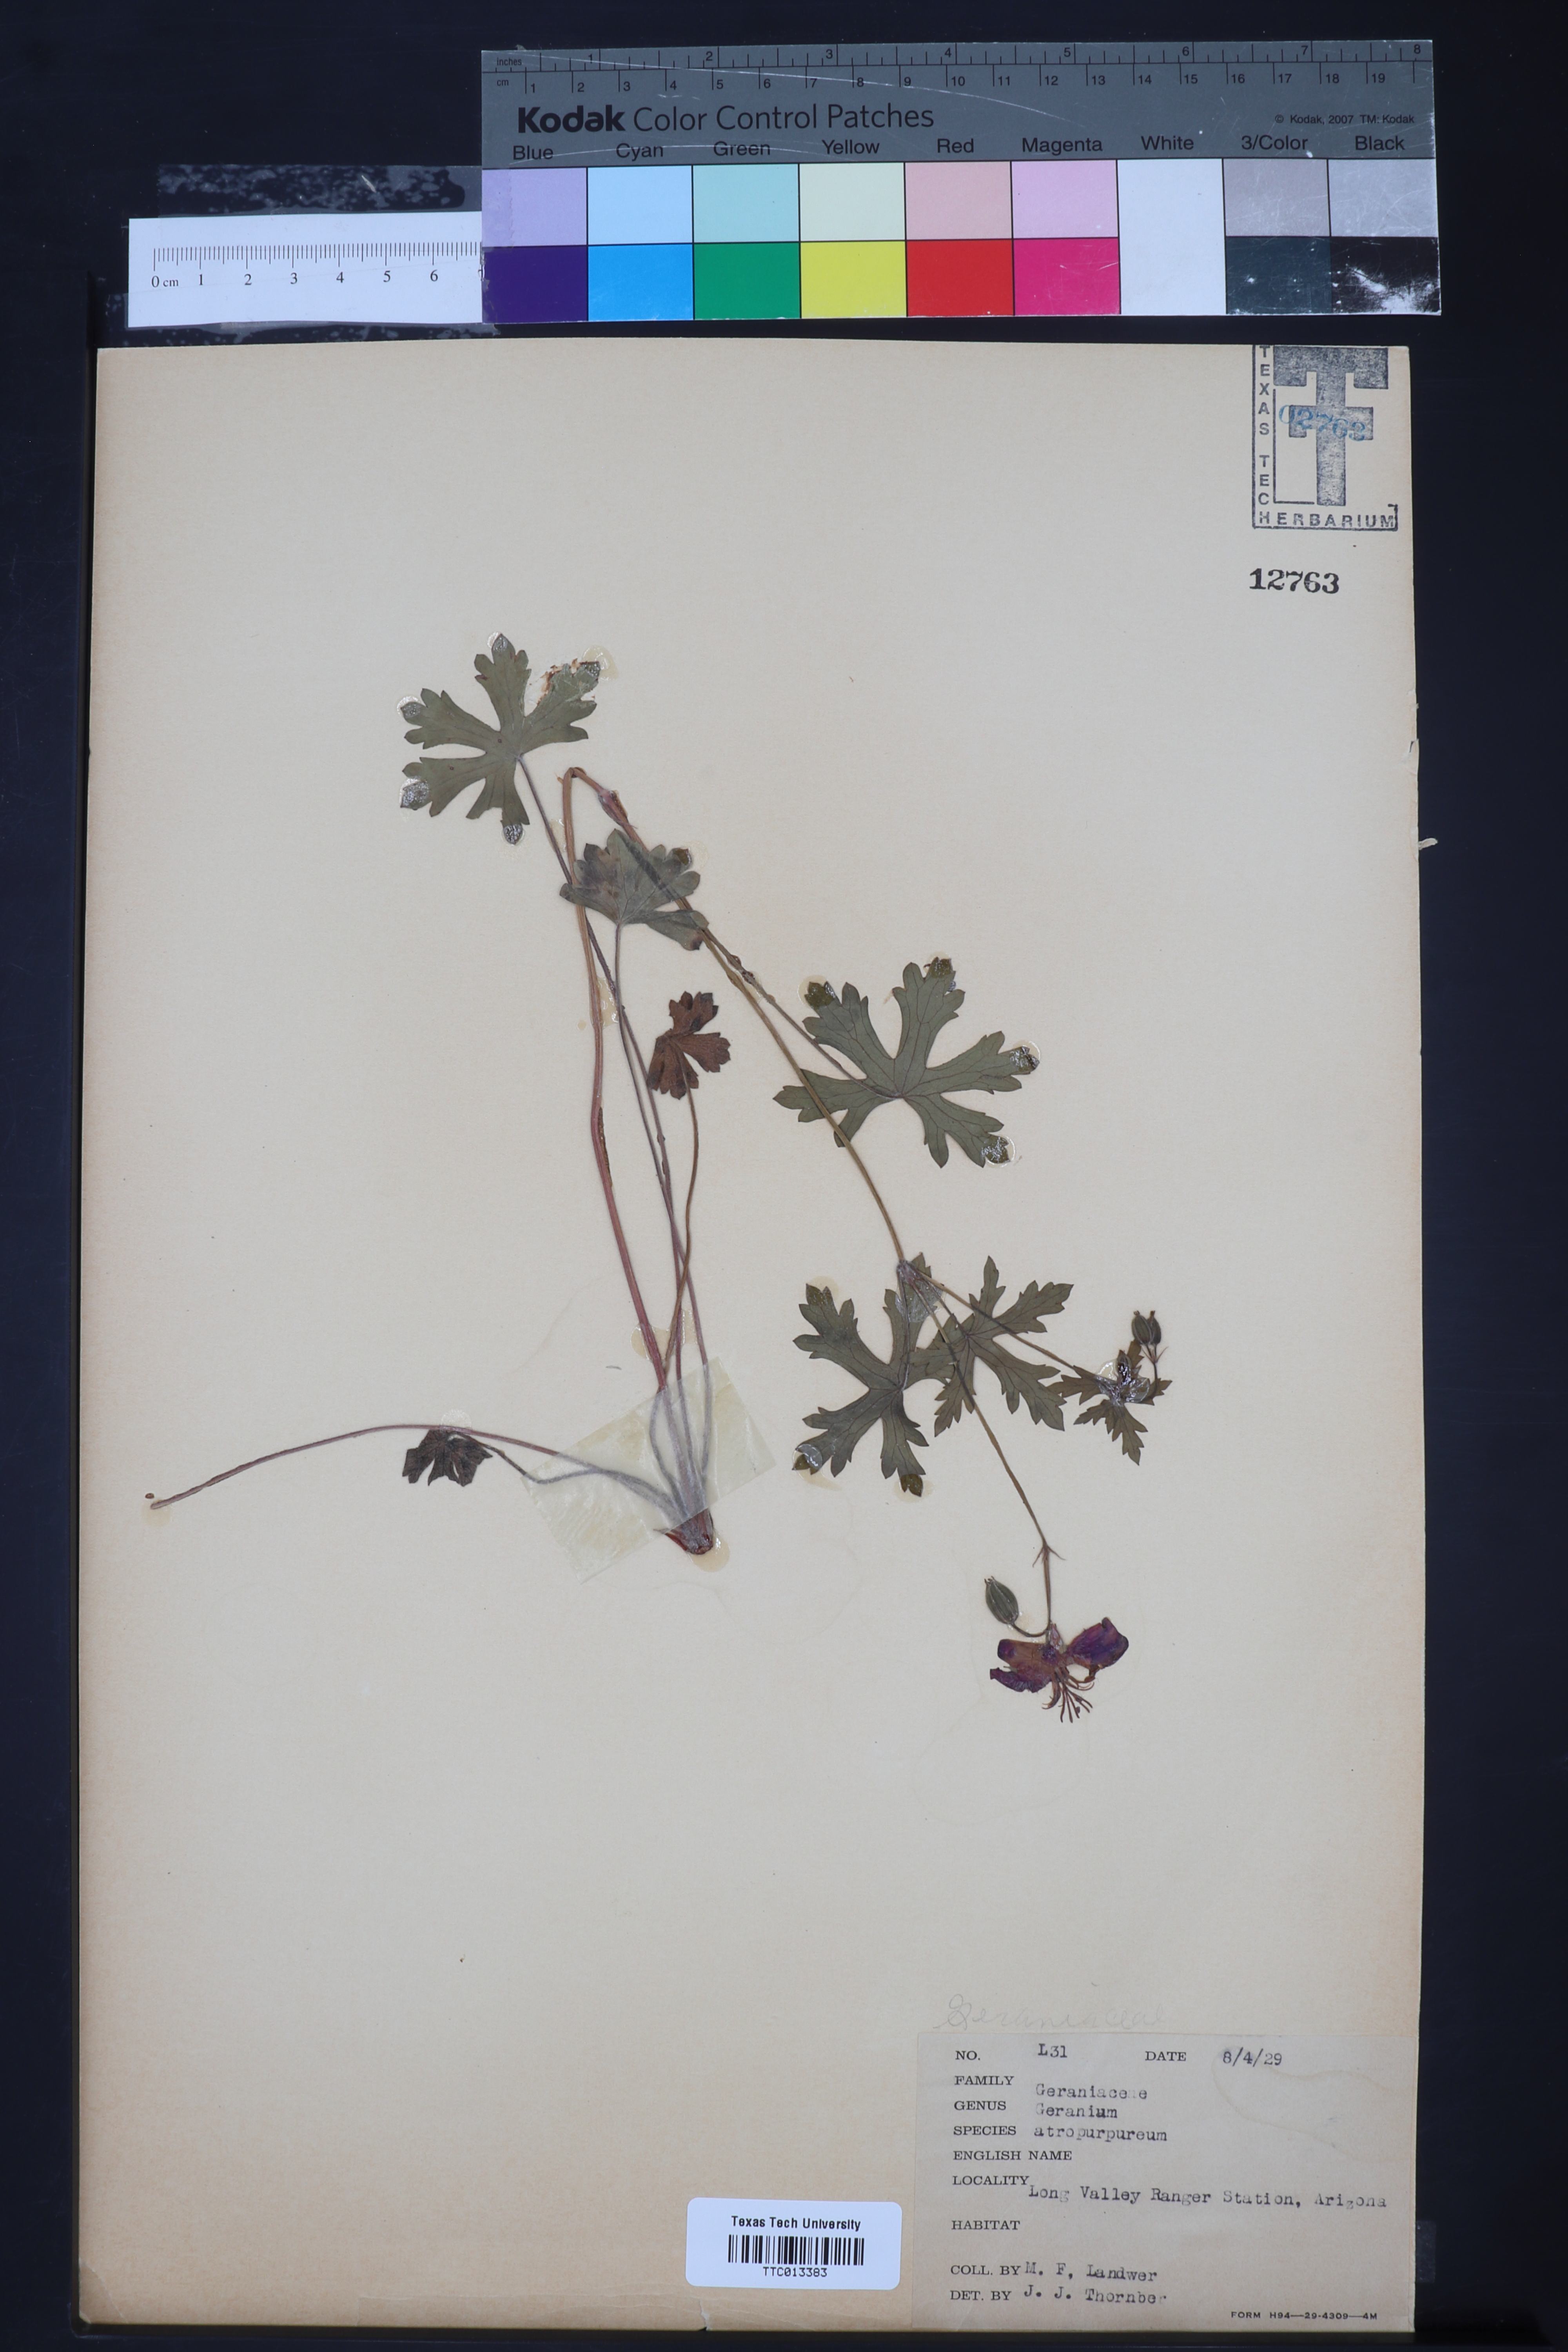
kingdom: Plantae
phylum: Tracheophyta
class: Magnoliopsida
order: Geraniales
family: Geraniaceae
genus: Geranium
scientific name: Geranium caespitosum
